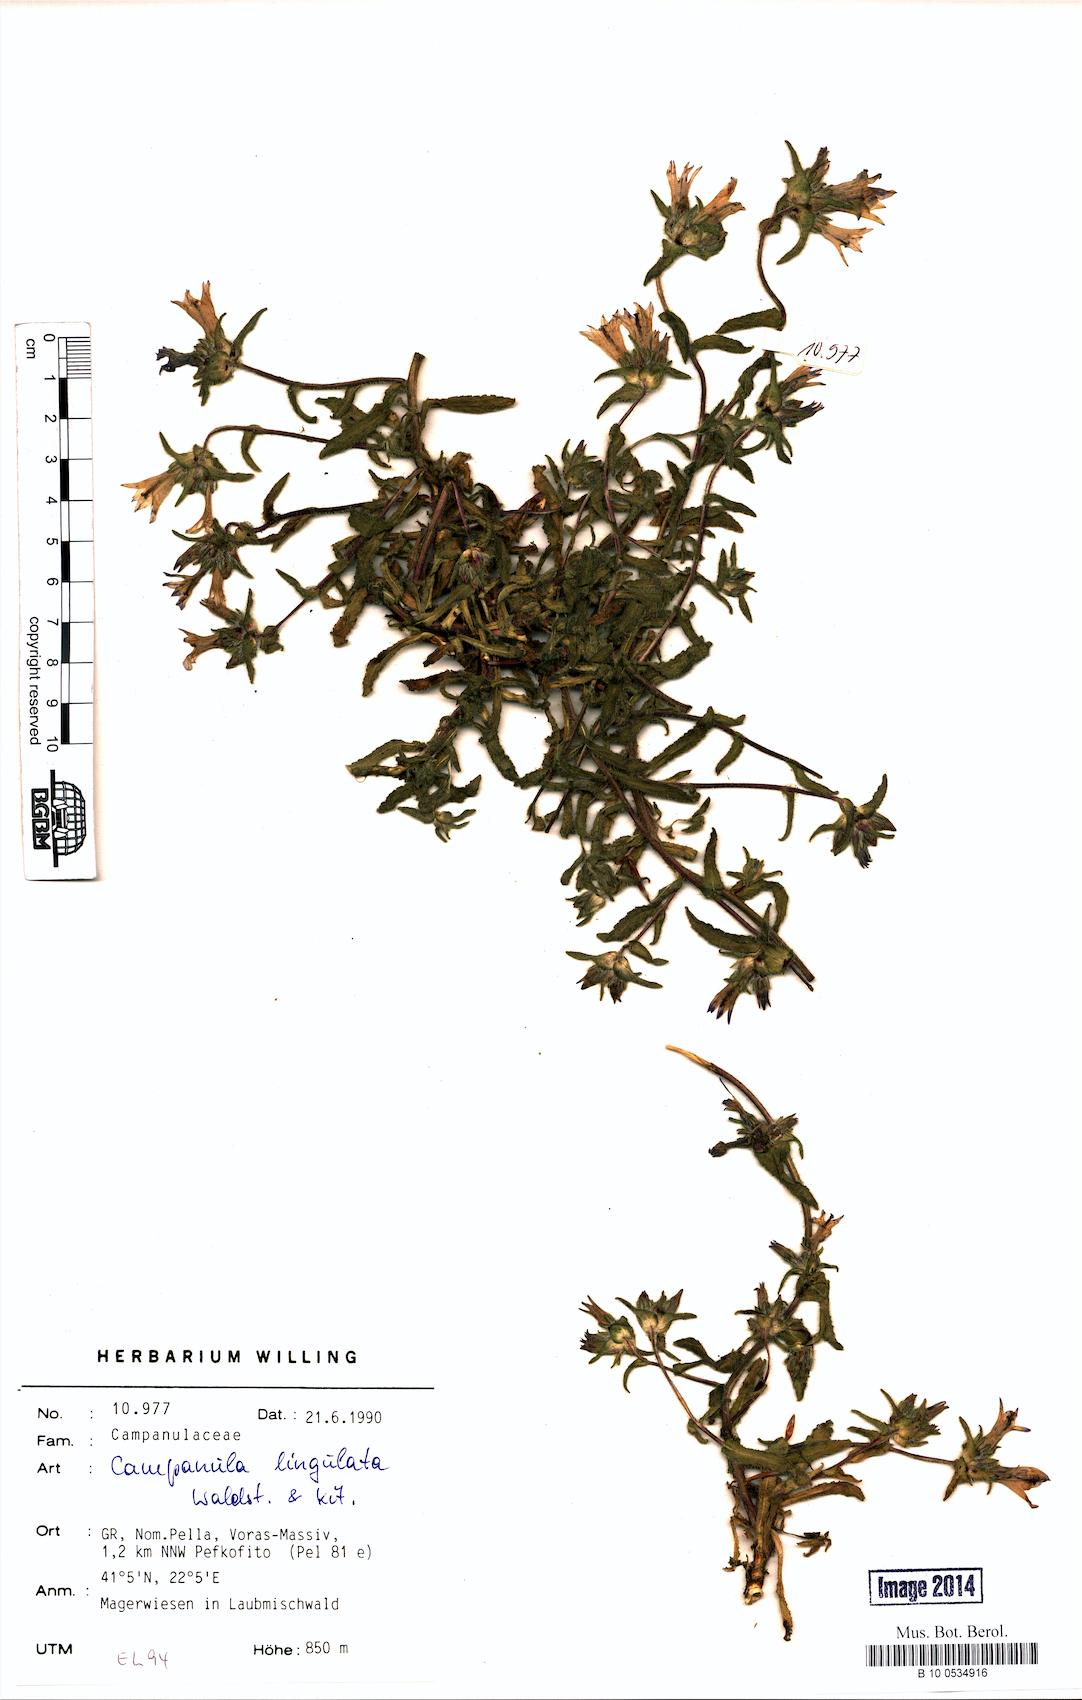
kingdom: Plantae
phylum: Tracheophyta
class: Magnoliopsida
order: Asterales
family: Campanulaceae
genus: Campanula
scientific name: Campanula lingulata
